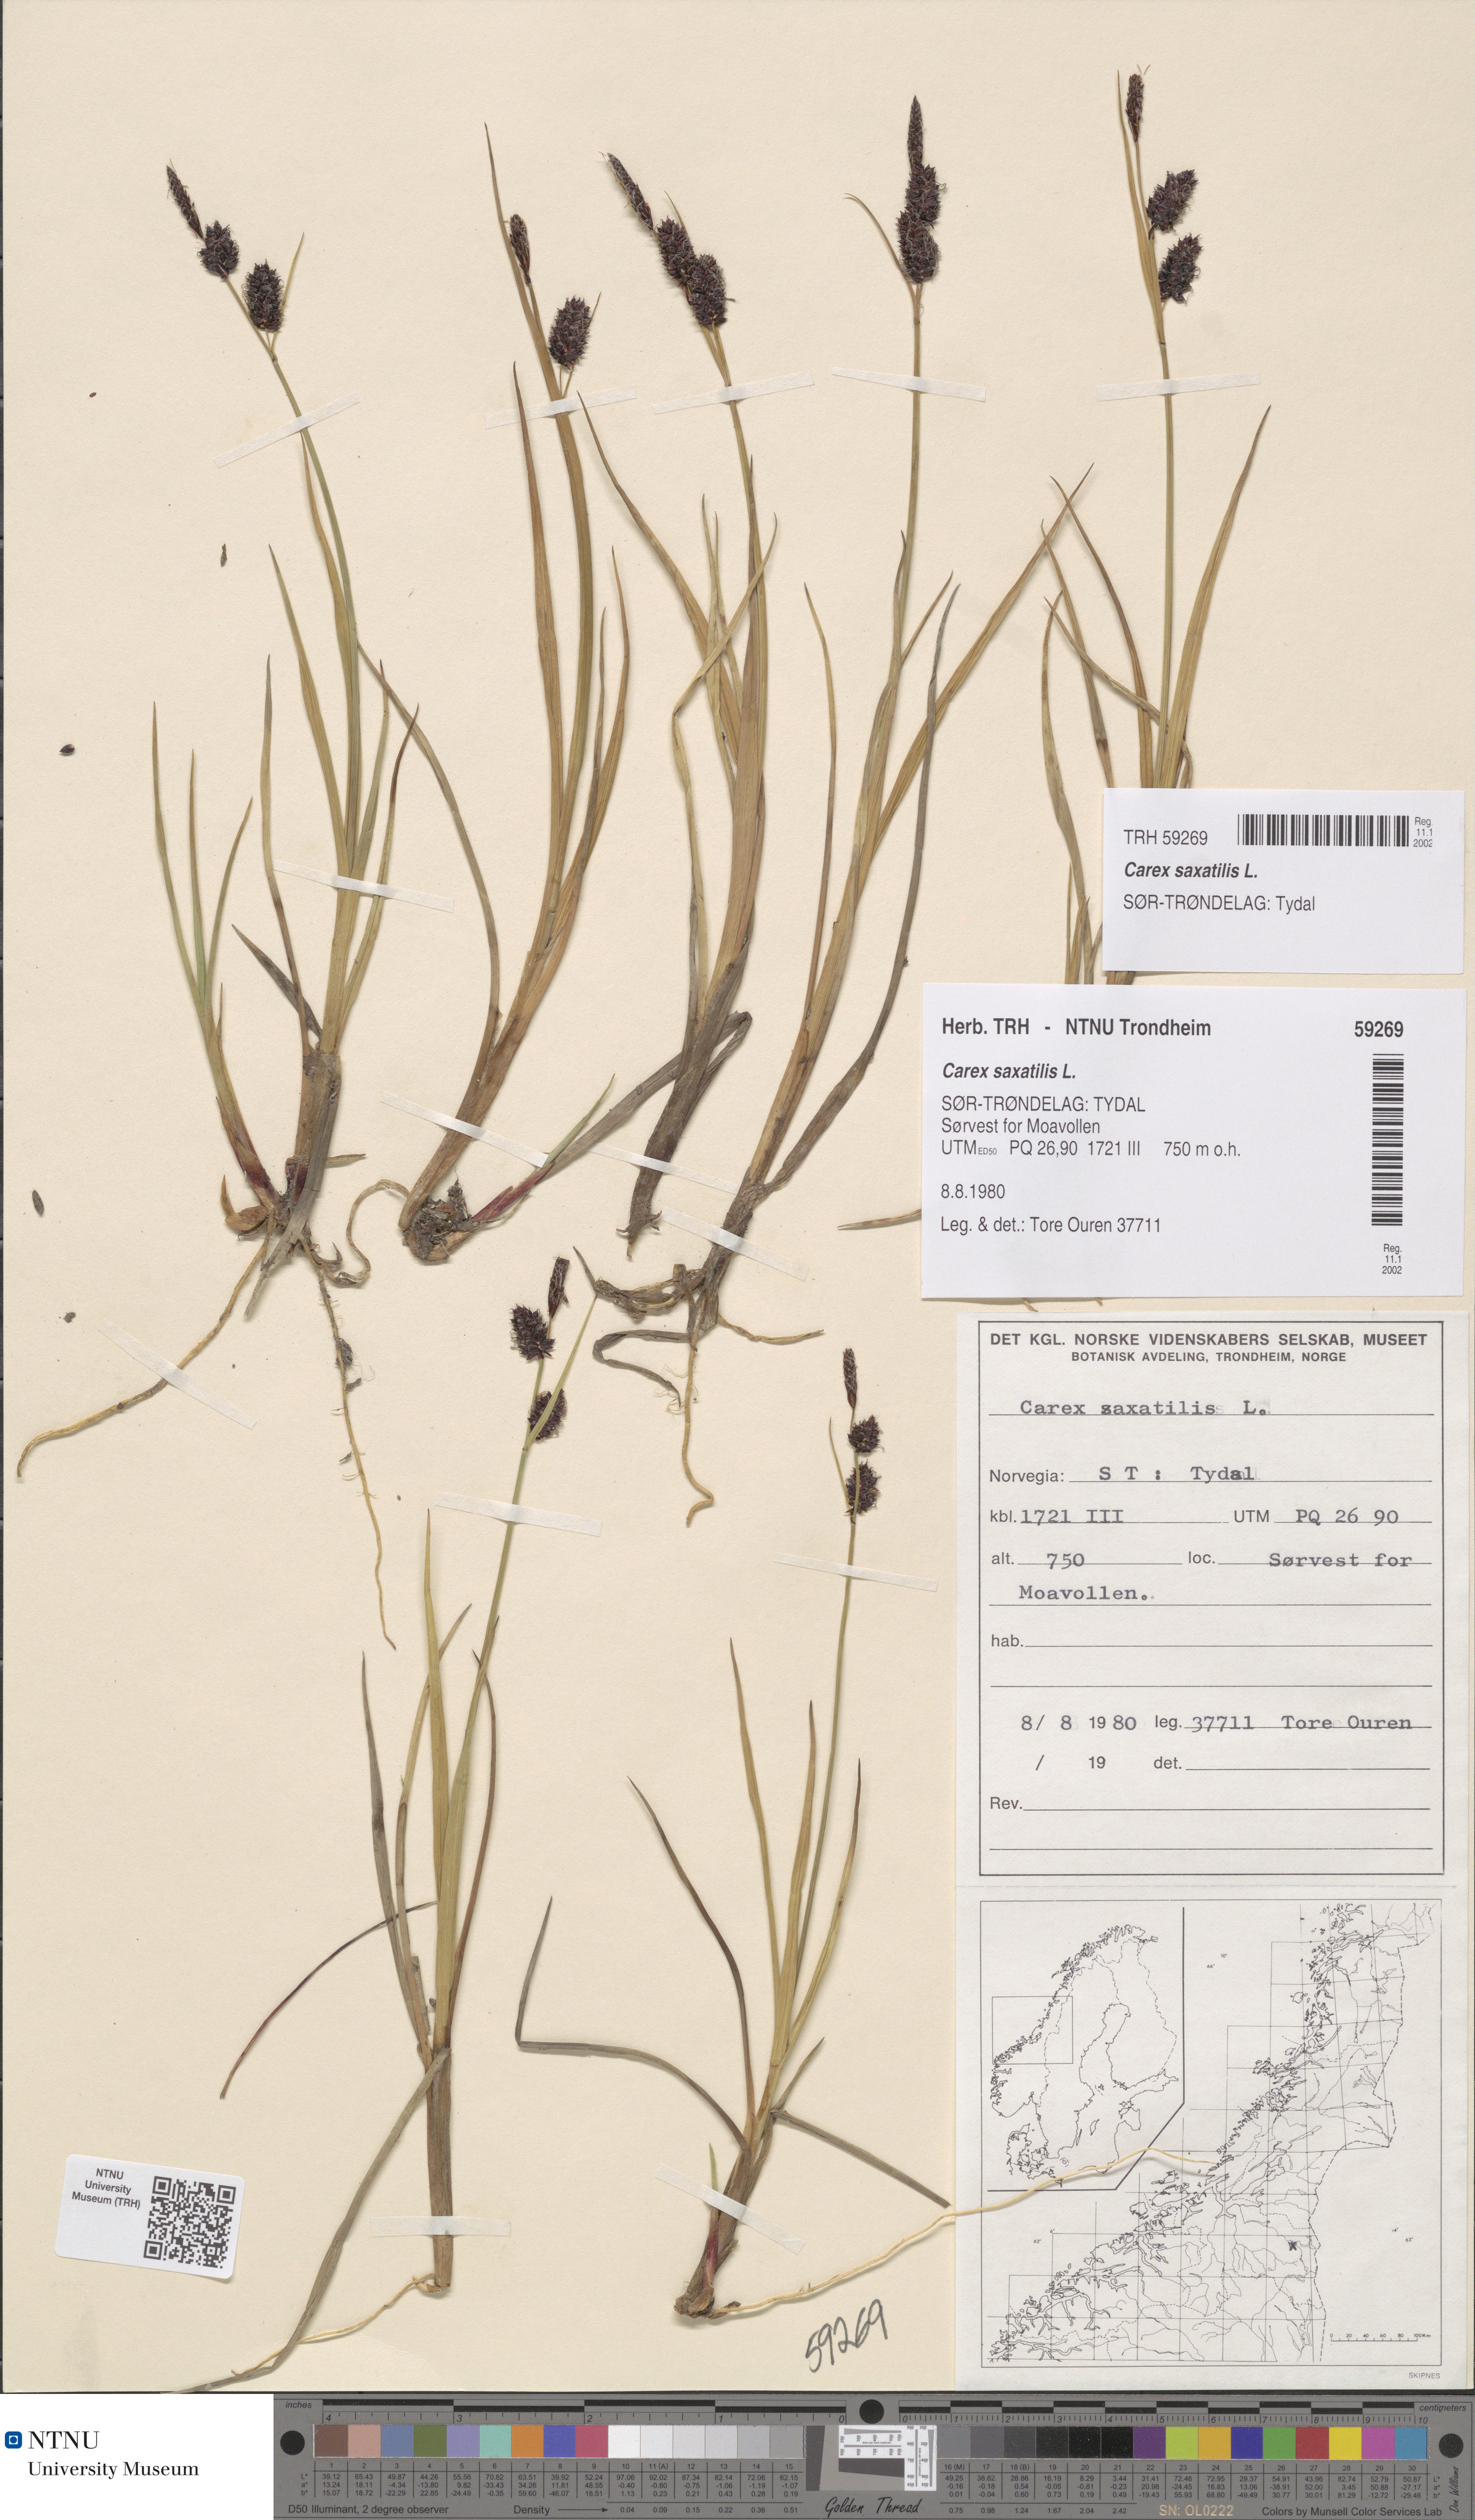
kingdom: Plantae
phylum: Tracheophyta
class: Liliopsida
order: Poales
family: Cyperaceae
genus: Carex
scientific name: Carex saxatilis
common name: Russet sedge
